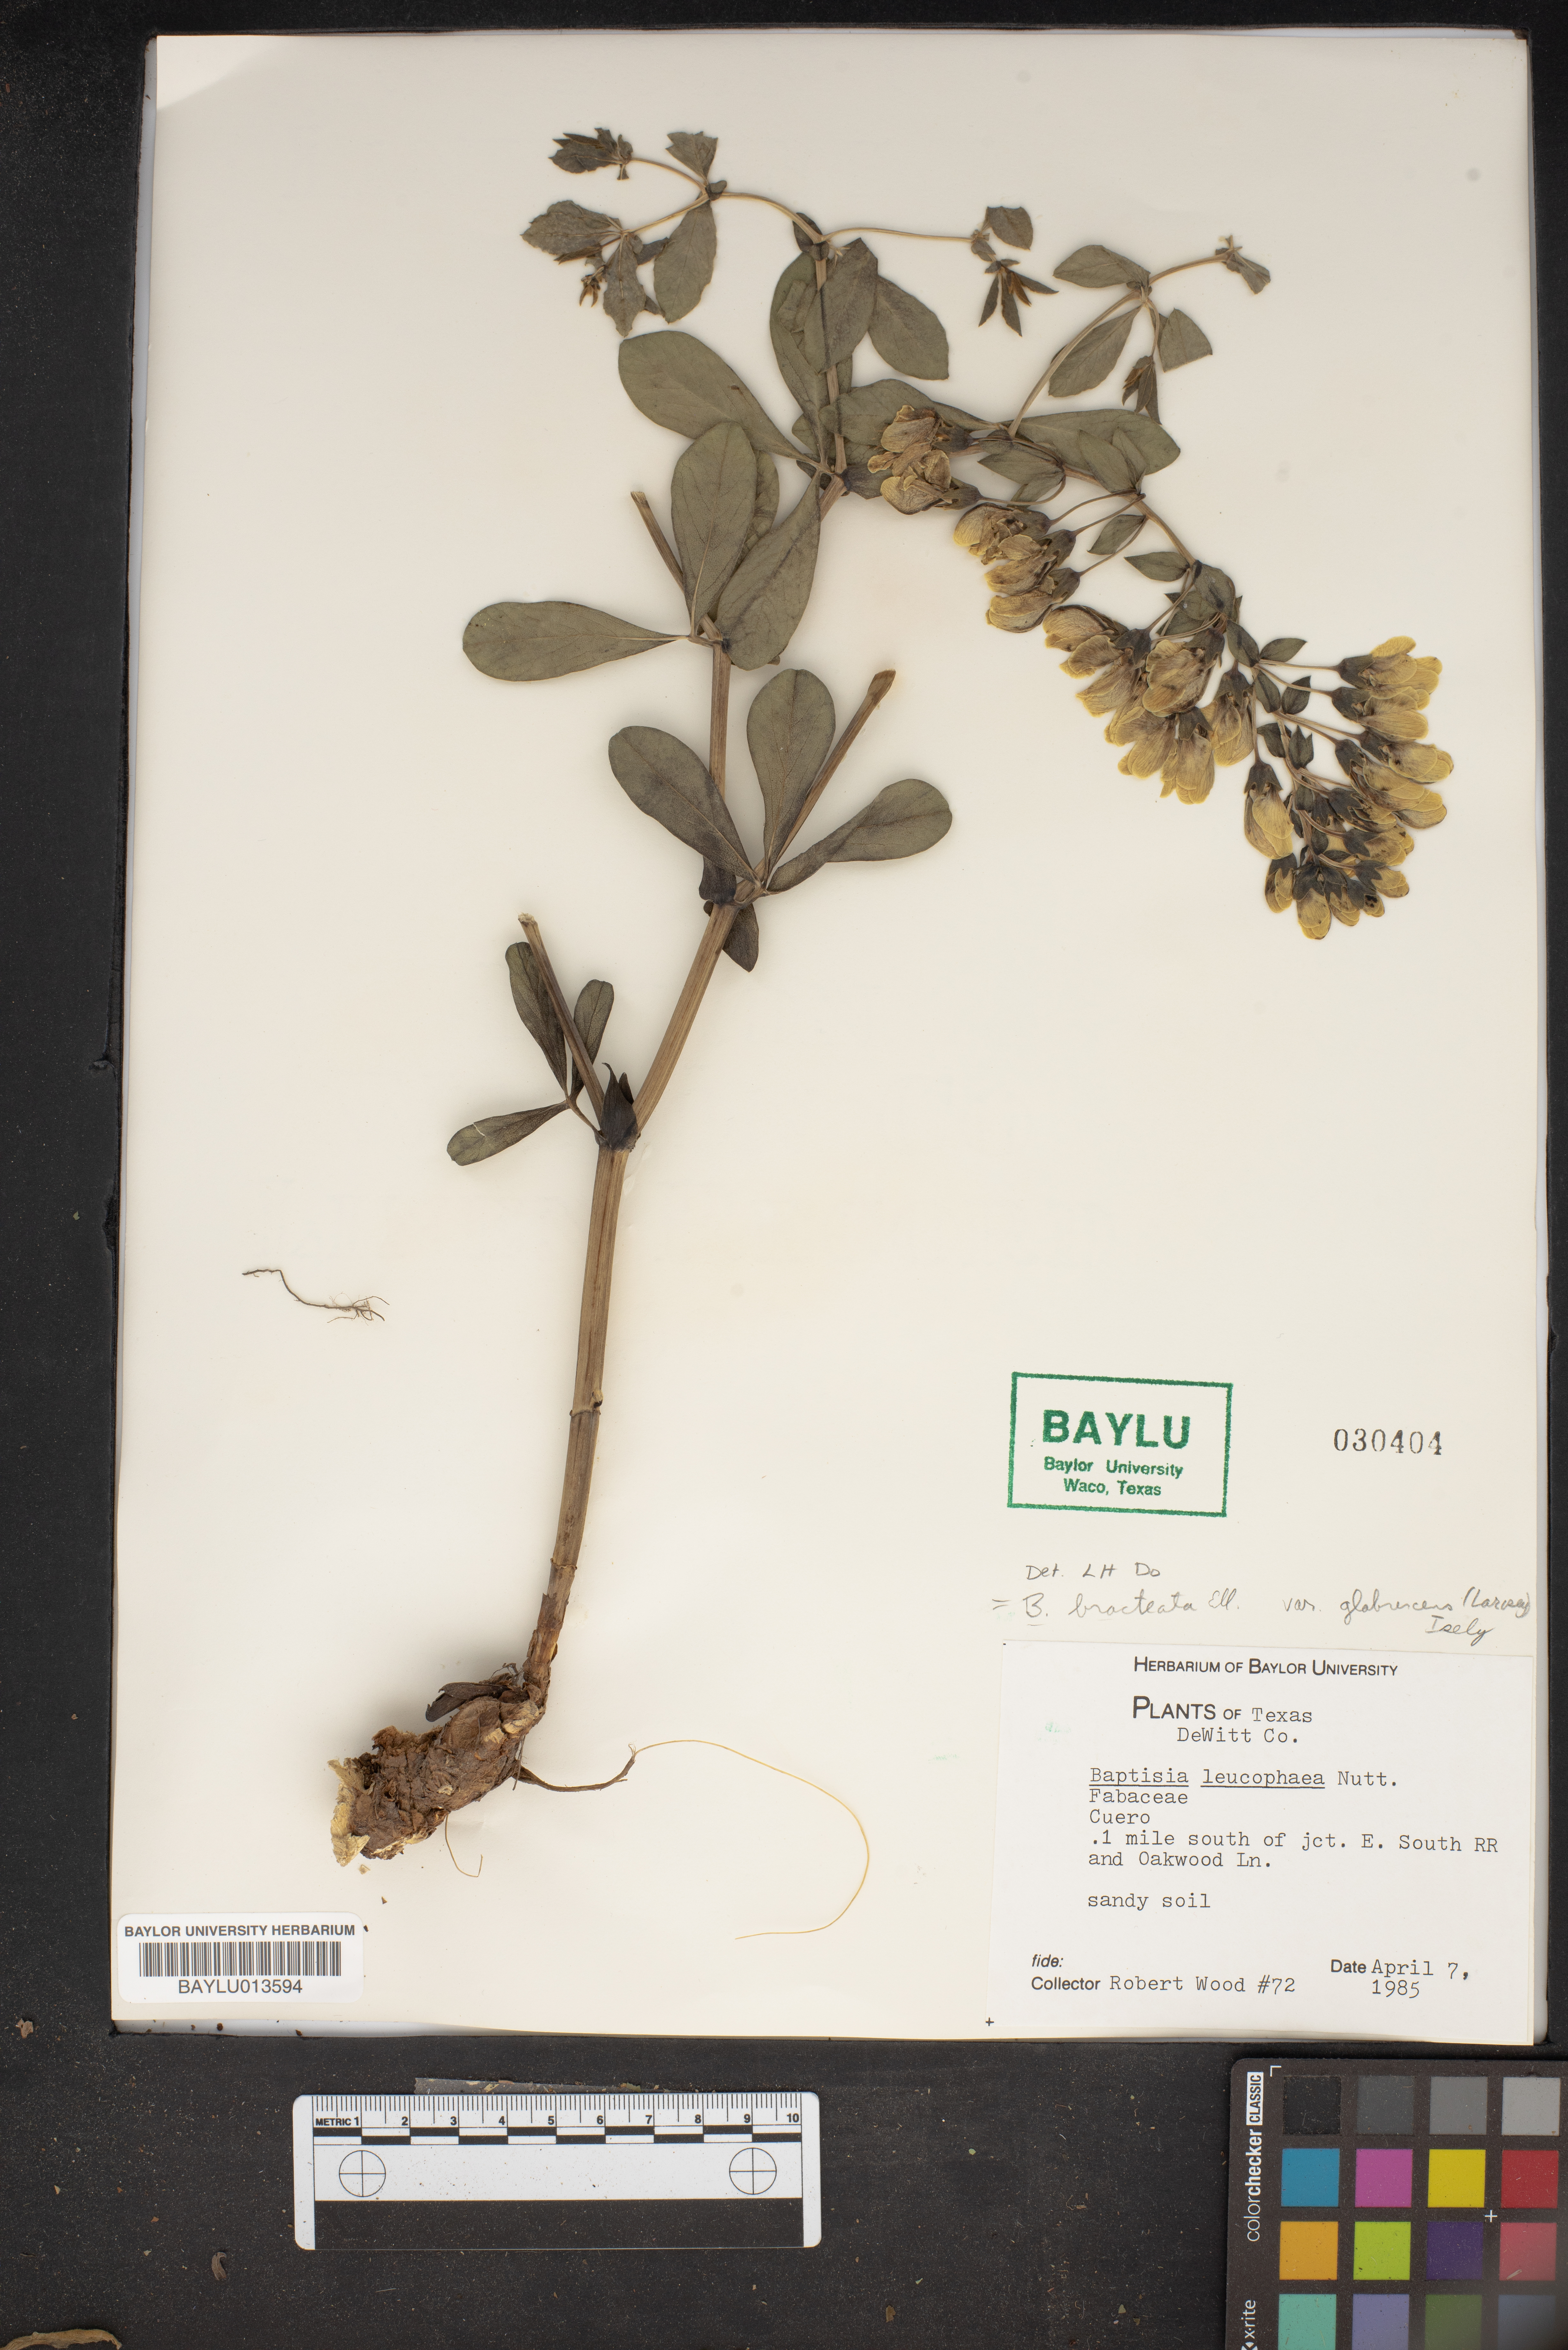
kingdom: Plantae
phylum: Tracheophyta
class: Magnoliopsida
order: Fabales
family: Fabaceae
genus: Baptisia
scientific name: Baptisia bracteata
